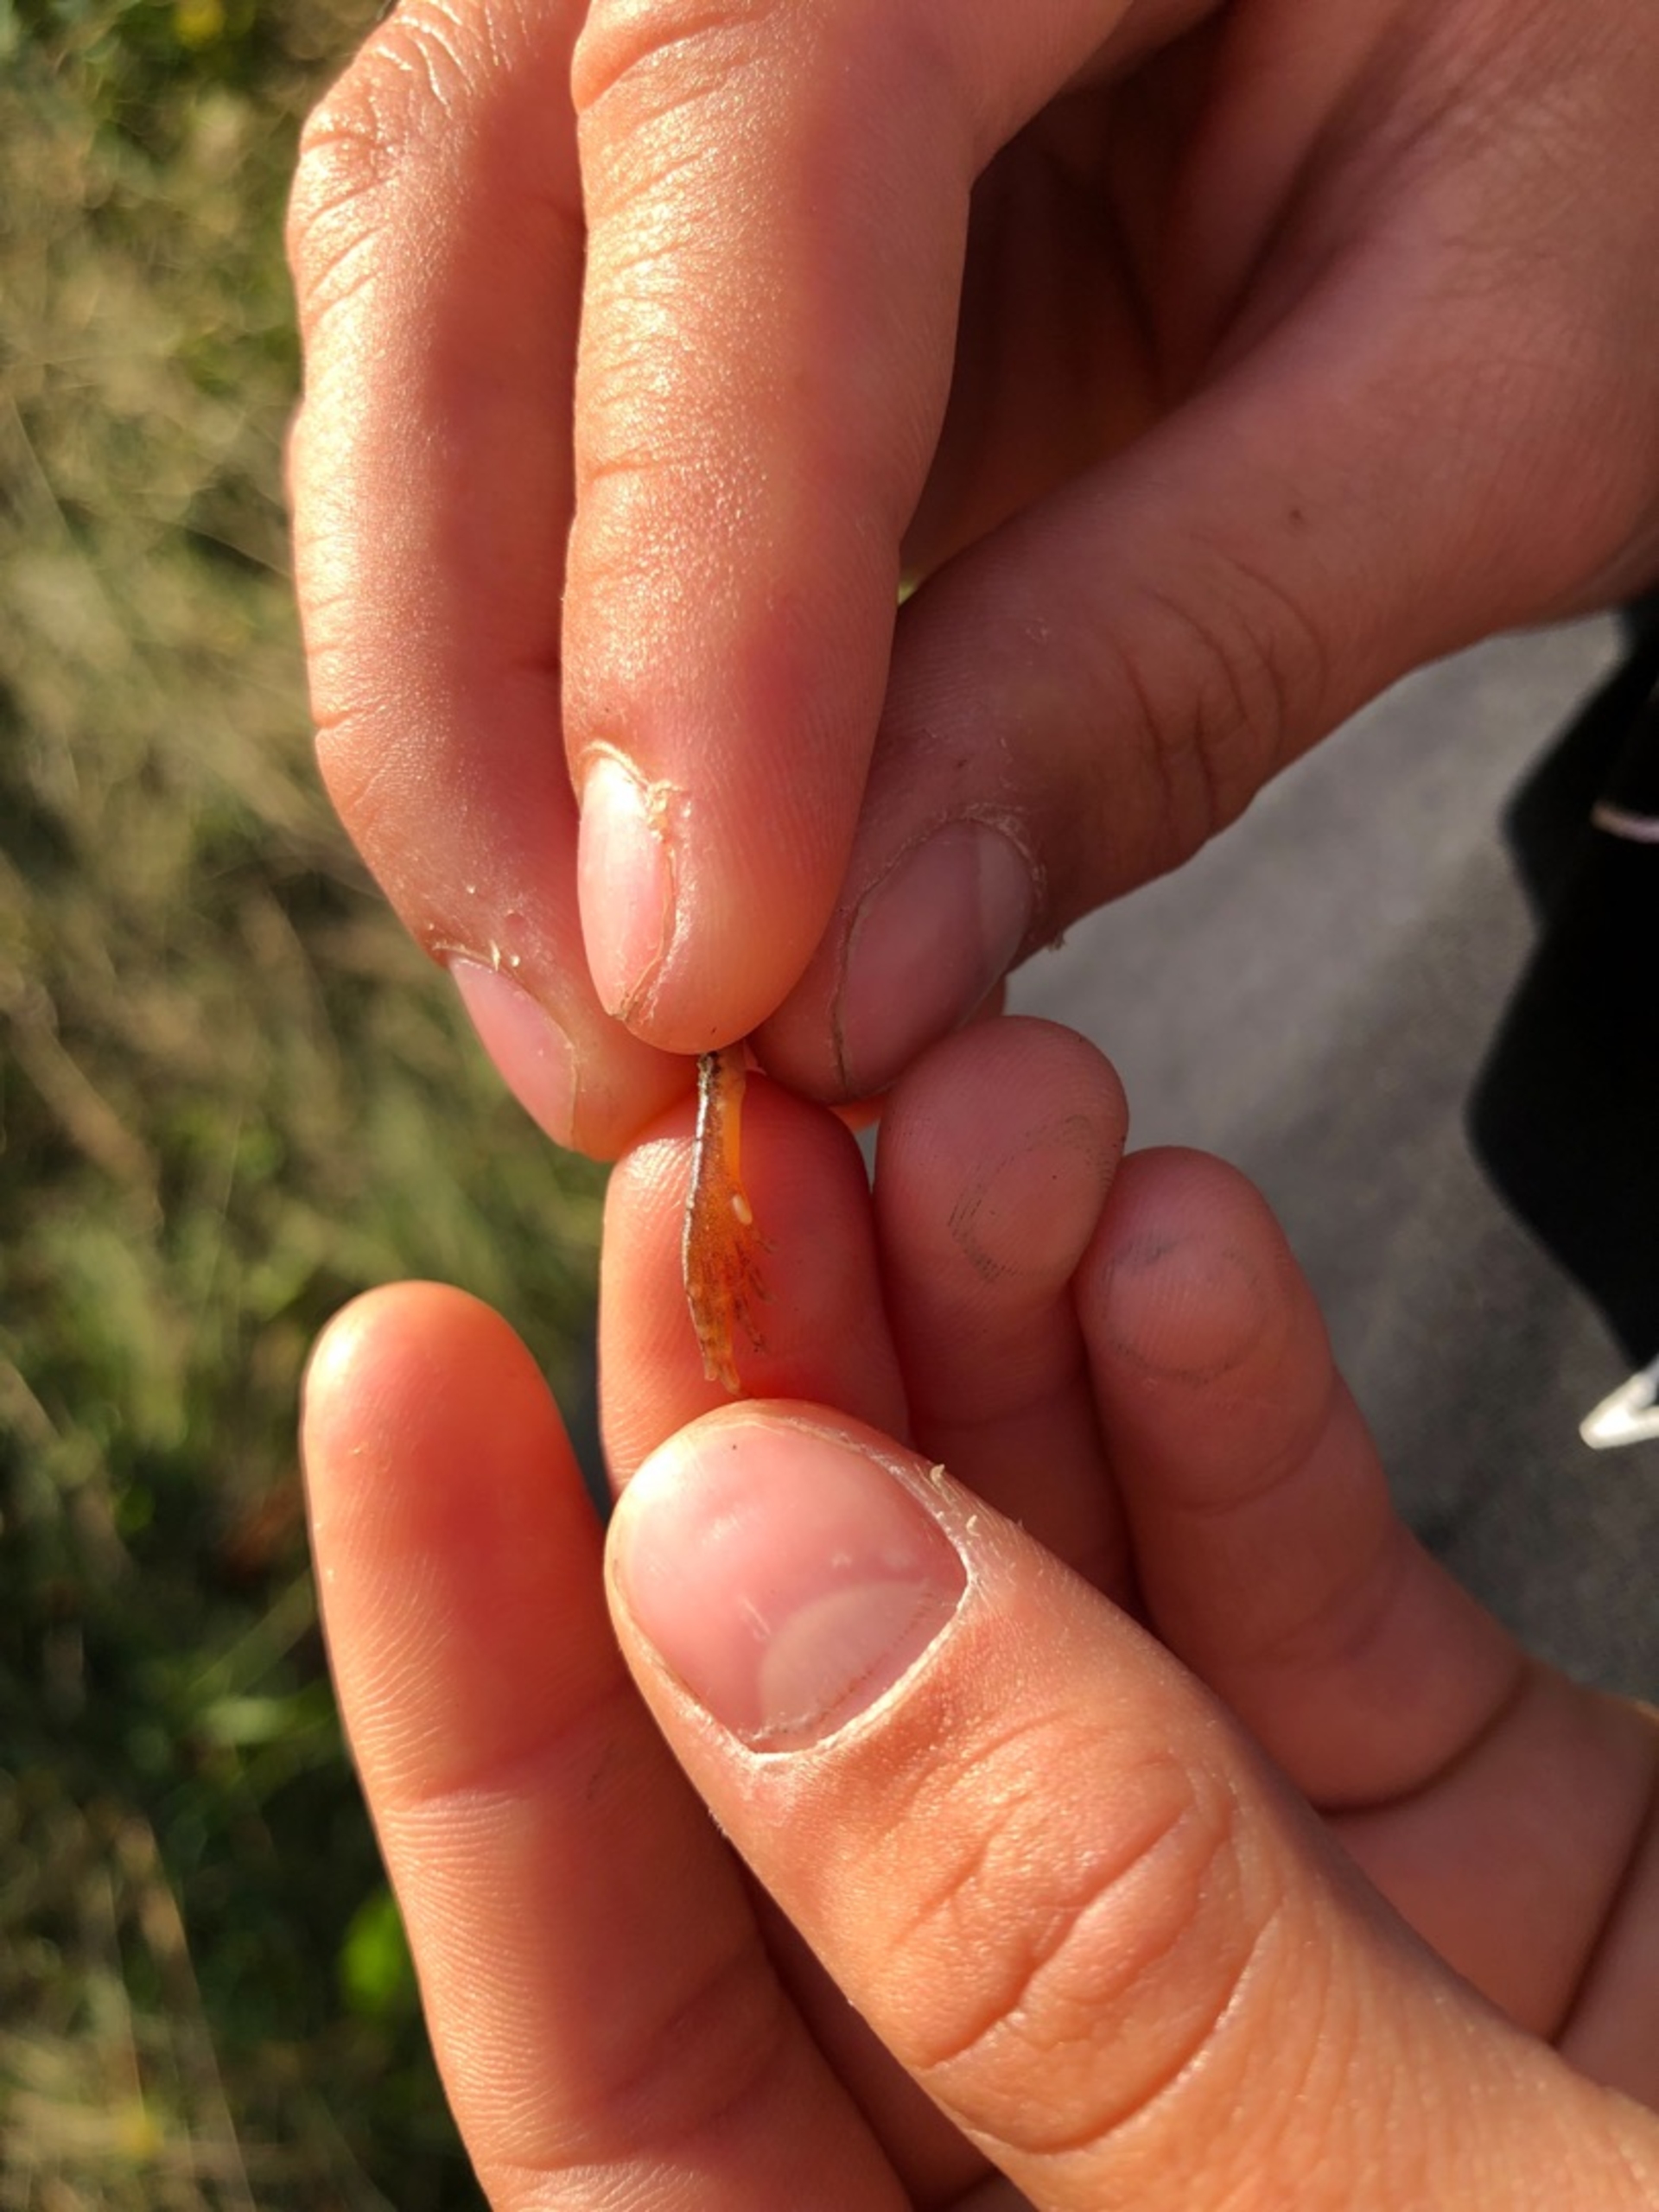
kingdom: Animalia
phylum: Chordata
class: Amphibia
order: Anura
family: Ranidae
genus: Rana
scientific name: Rana arvalis
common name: Spidssnudet frø
